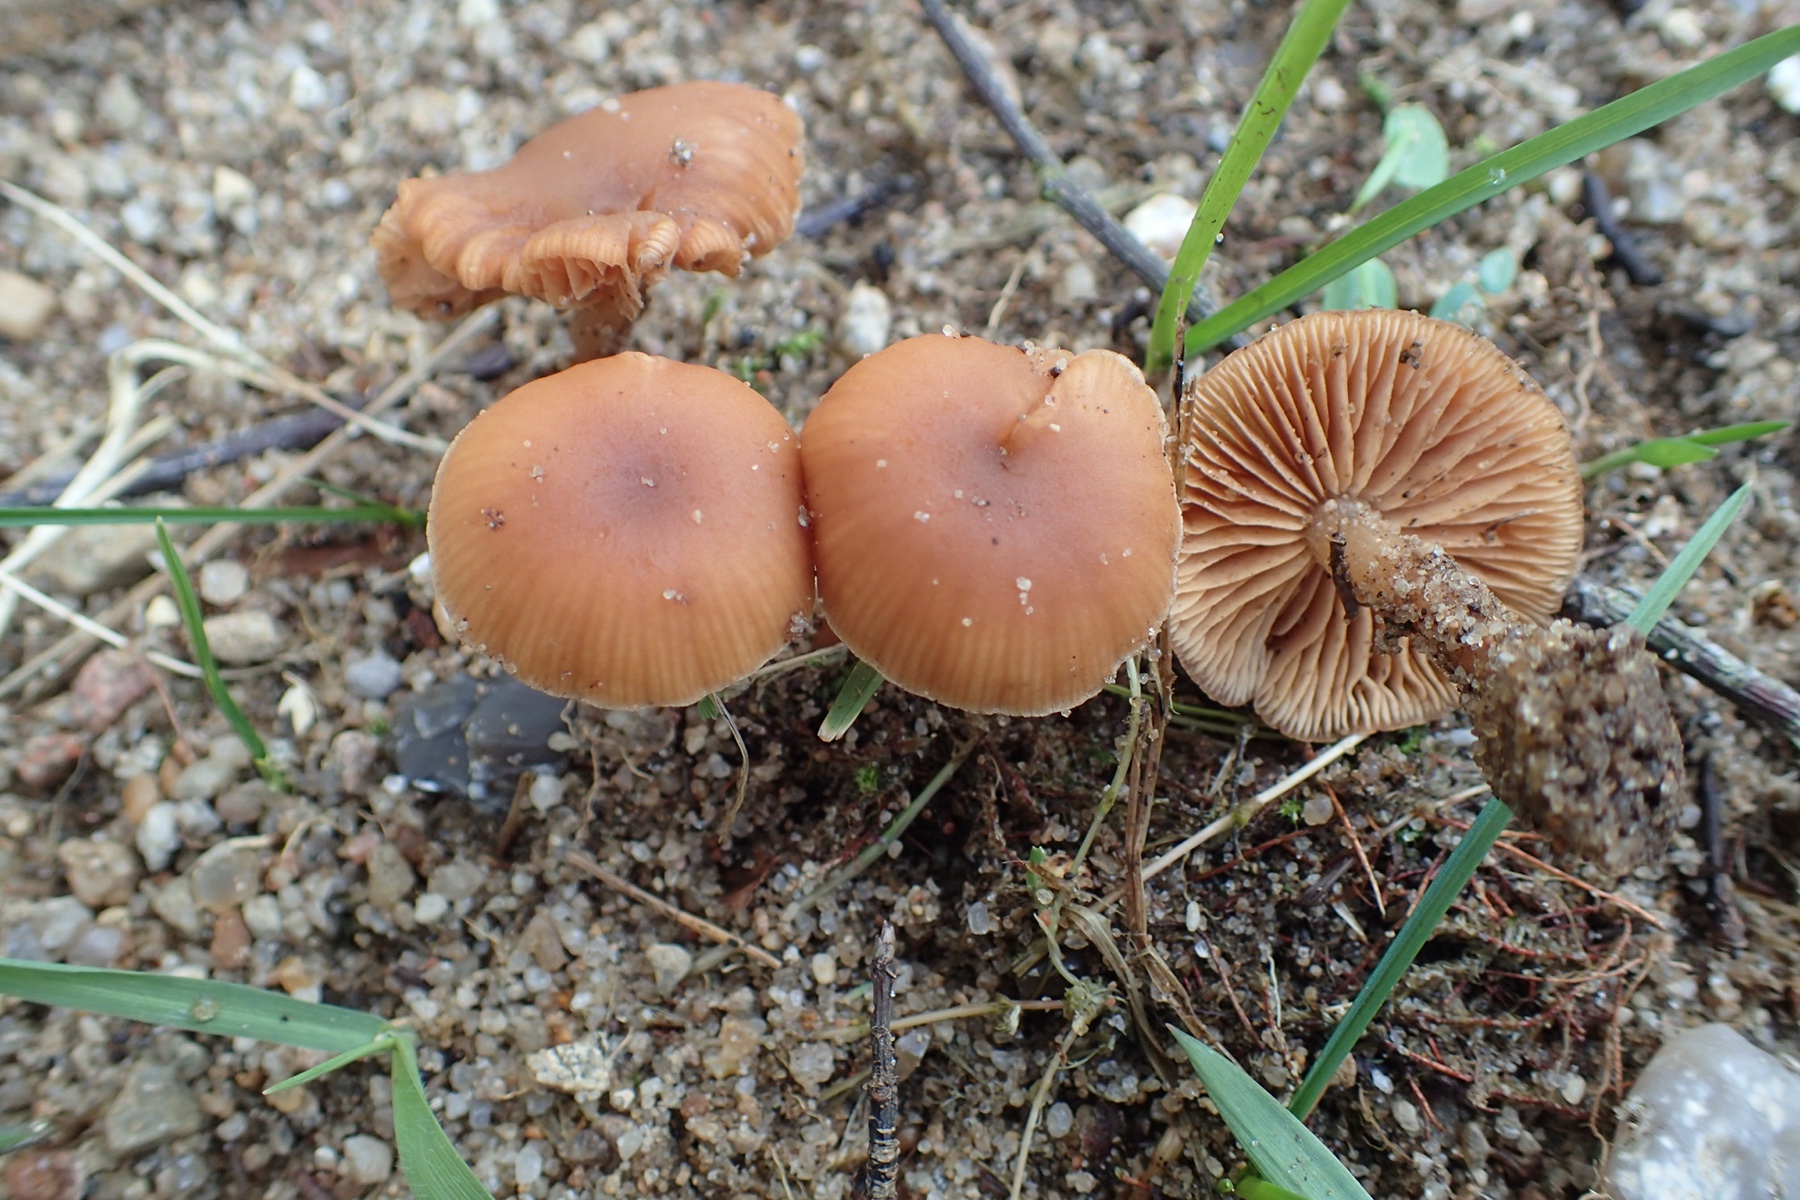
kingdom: Fungi
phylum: Basidiomycota
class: Agaricomycetes
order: Agaricales
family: Tubariaceae
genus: Tubaria
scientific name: Tubaria furfuracea
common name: kliddet fnughat
